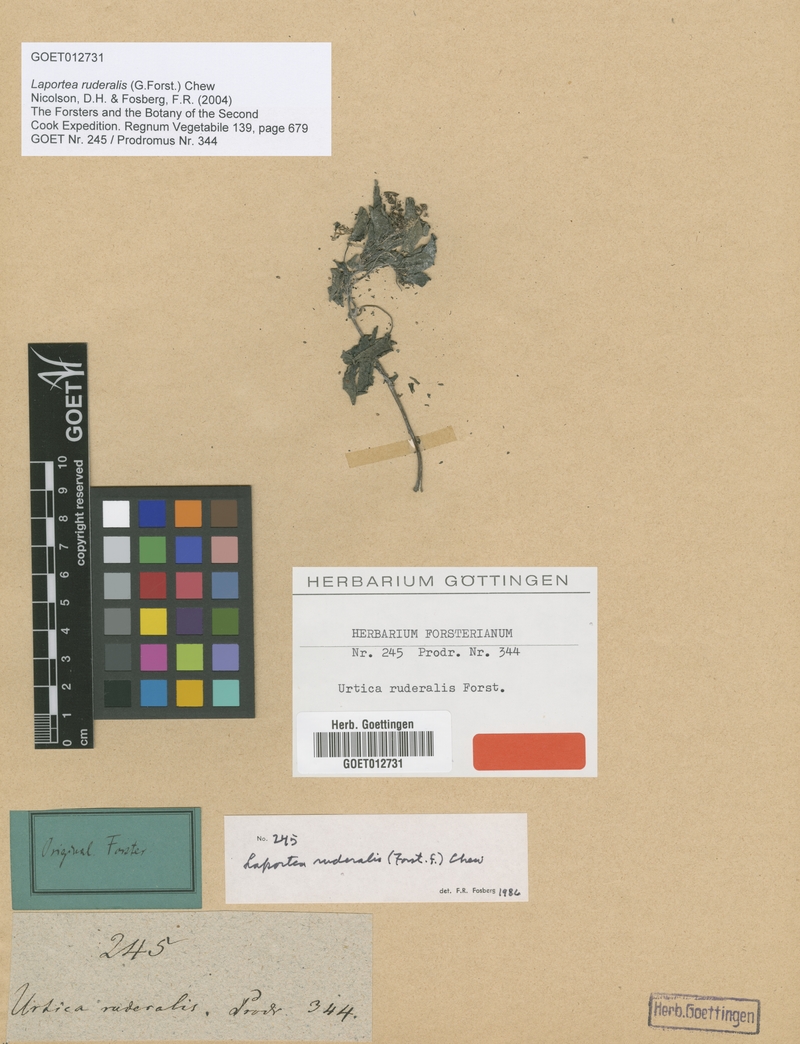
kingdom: Plantae
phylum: Tracheophyta
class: Magnoliopsida
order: Rosales
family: Urticaceae
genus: Laportea
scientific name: Laportea ruderalis
